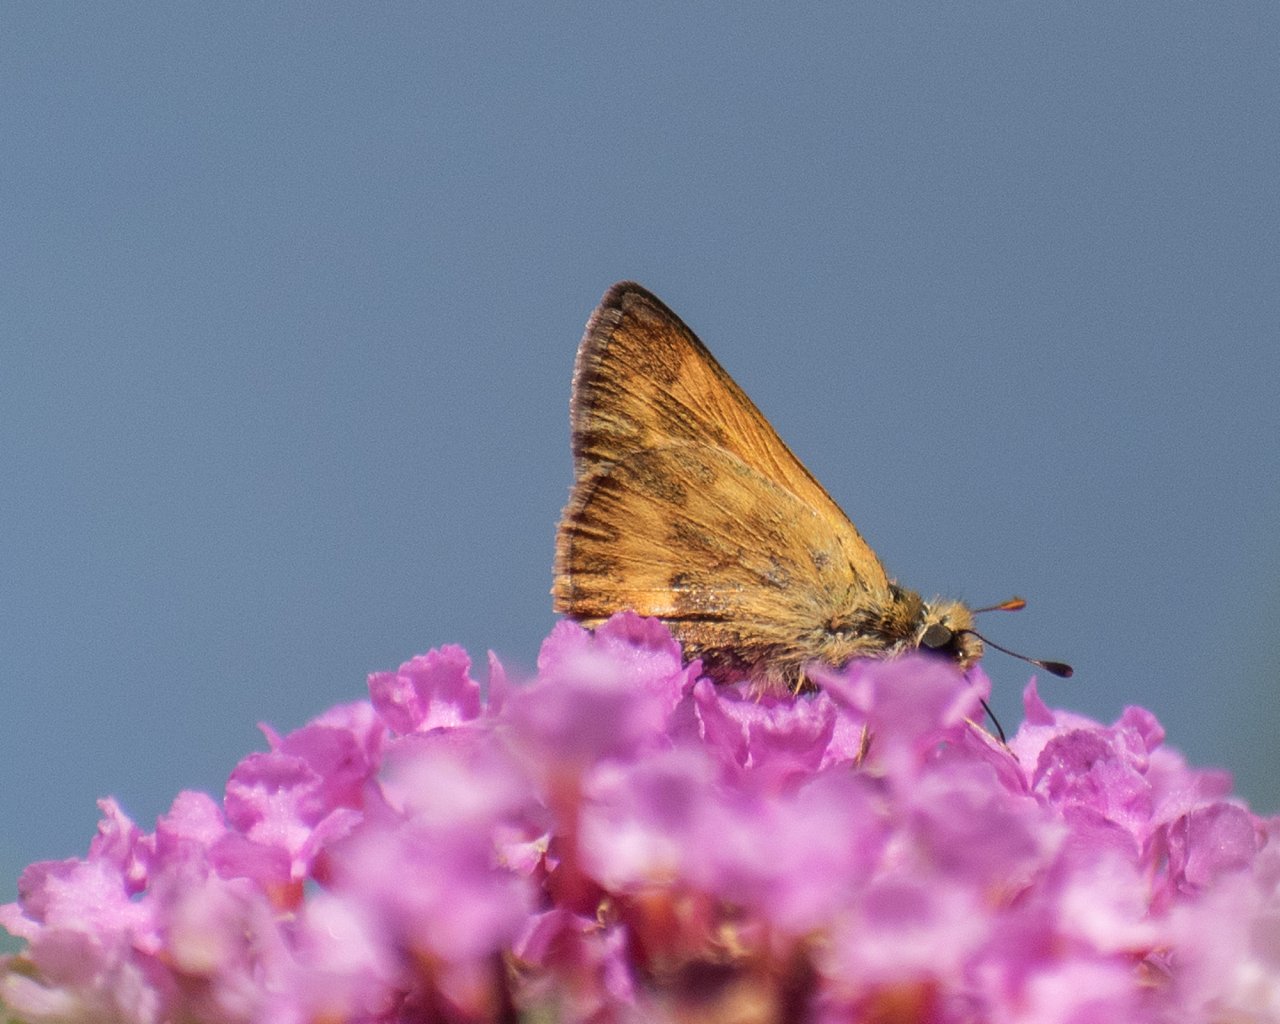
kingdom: Animalia
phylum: Arthropoda
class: Insecta
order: Lepidoptera
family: Hesperiidae
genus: Ochlodes
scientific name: Ochlodes sylvanoides
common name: Woodland Skipper
